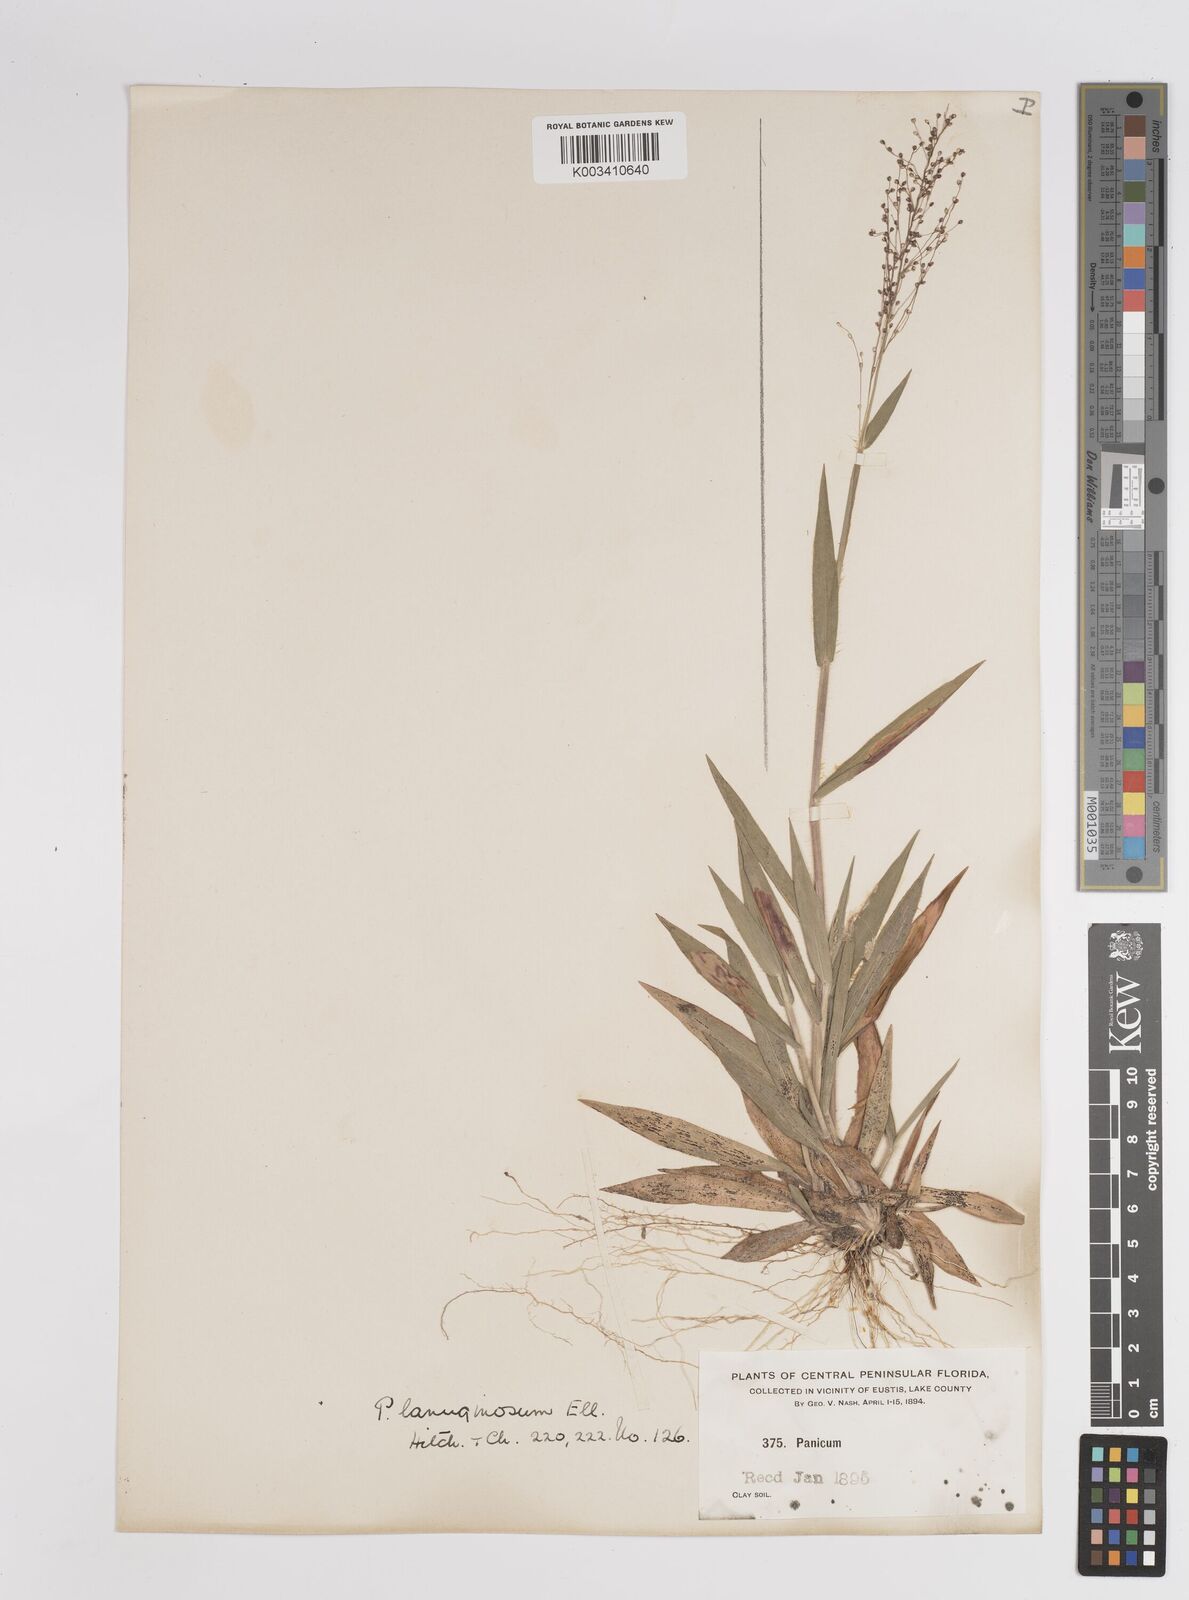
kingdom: Plantae
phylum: Tracheophyta
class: Liliopsida
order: Poales
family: Poaceae
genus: Dichanthelium
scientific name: Dichanthelium lanuginosum
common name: Woolly panicgrass
